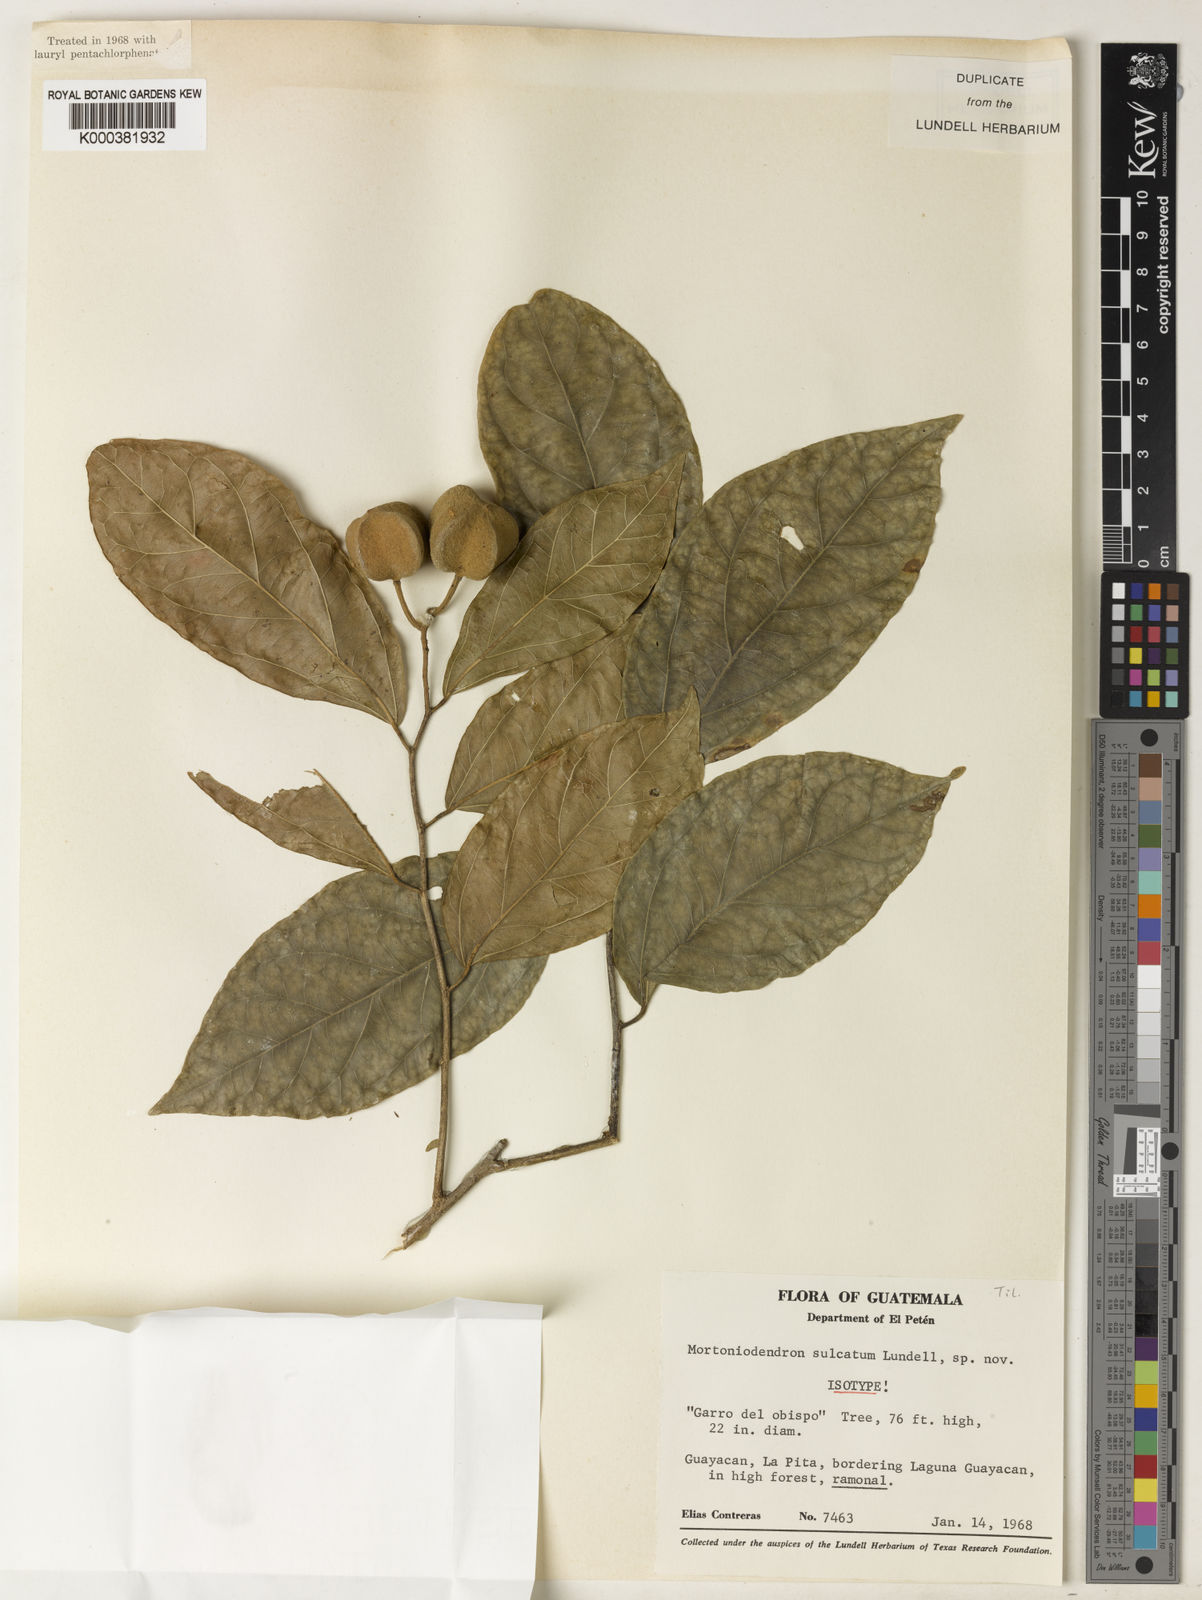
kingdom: Plantae
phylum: Tracheophyta
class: Magnoliopsida
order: Malvales
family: Malvaceae
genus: Mortoniodendron
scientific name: Mortoniodendron sulcatum
